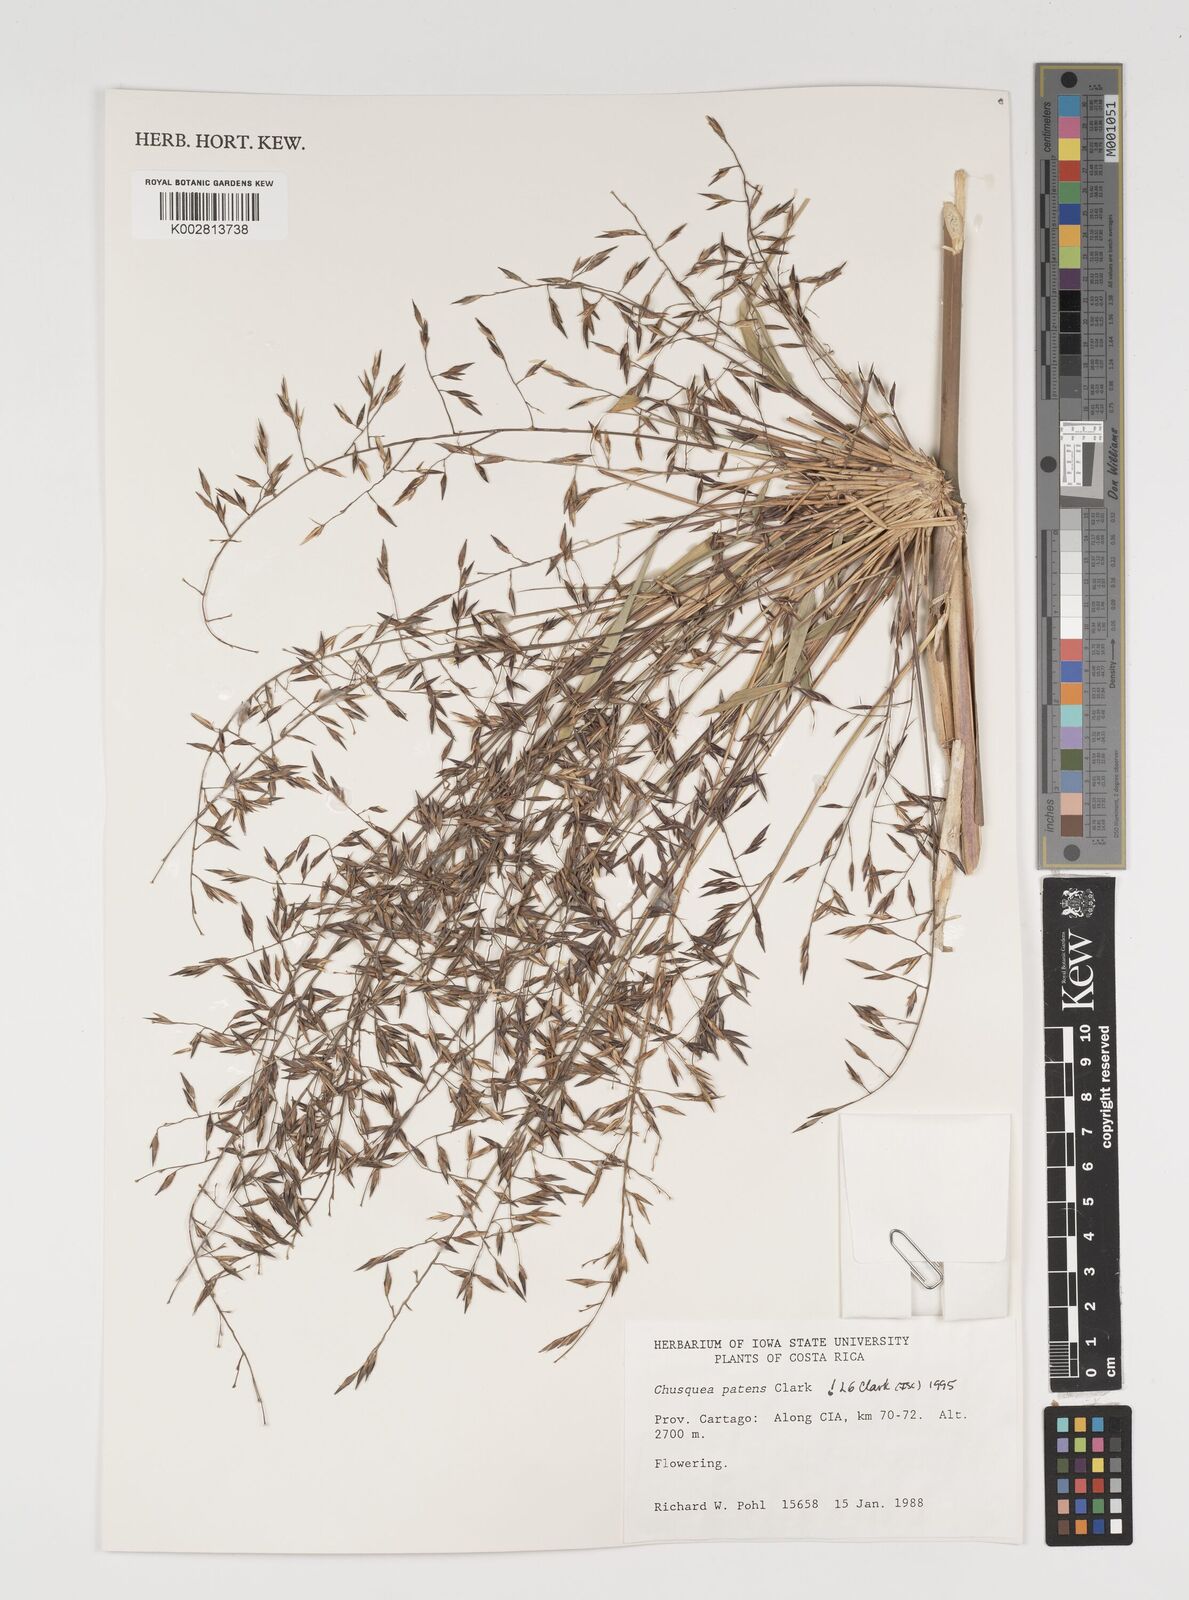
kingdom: Plantae
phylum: Tracheophyta
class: Liliopsida
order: Poales
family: Poaceae
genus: Chusquea
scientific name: Chusquea patens
